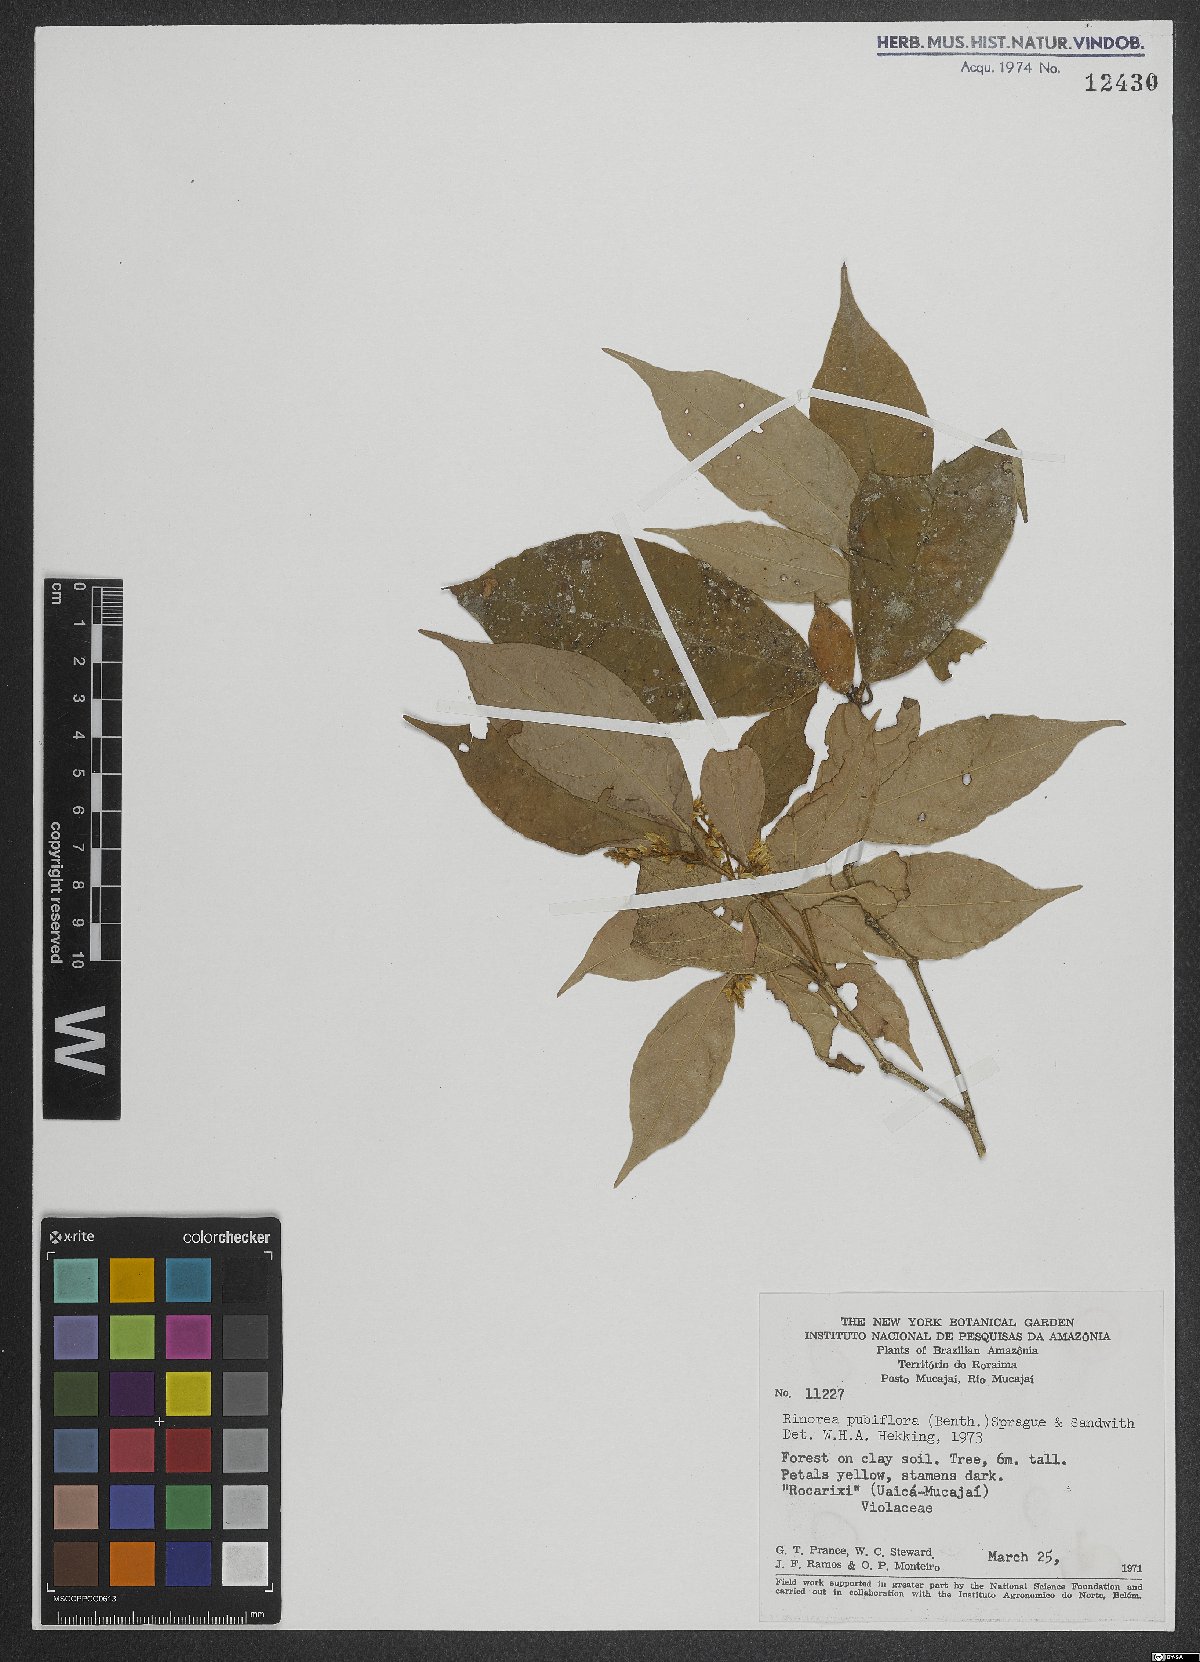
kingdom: Plantae
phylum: Tracheophyta
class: Magnoliopsida
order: Malpighiales
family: Violaceae
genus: Rinorea
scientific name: Rinorea pubiflora
